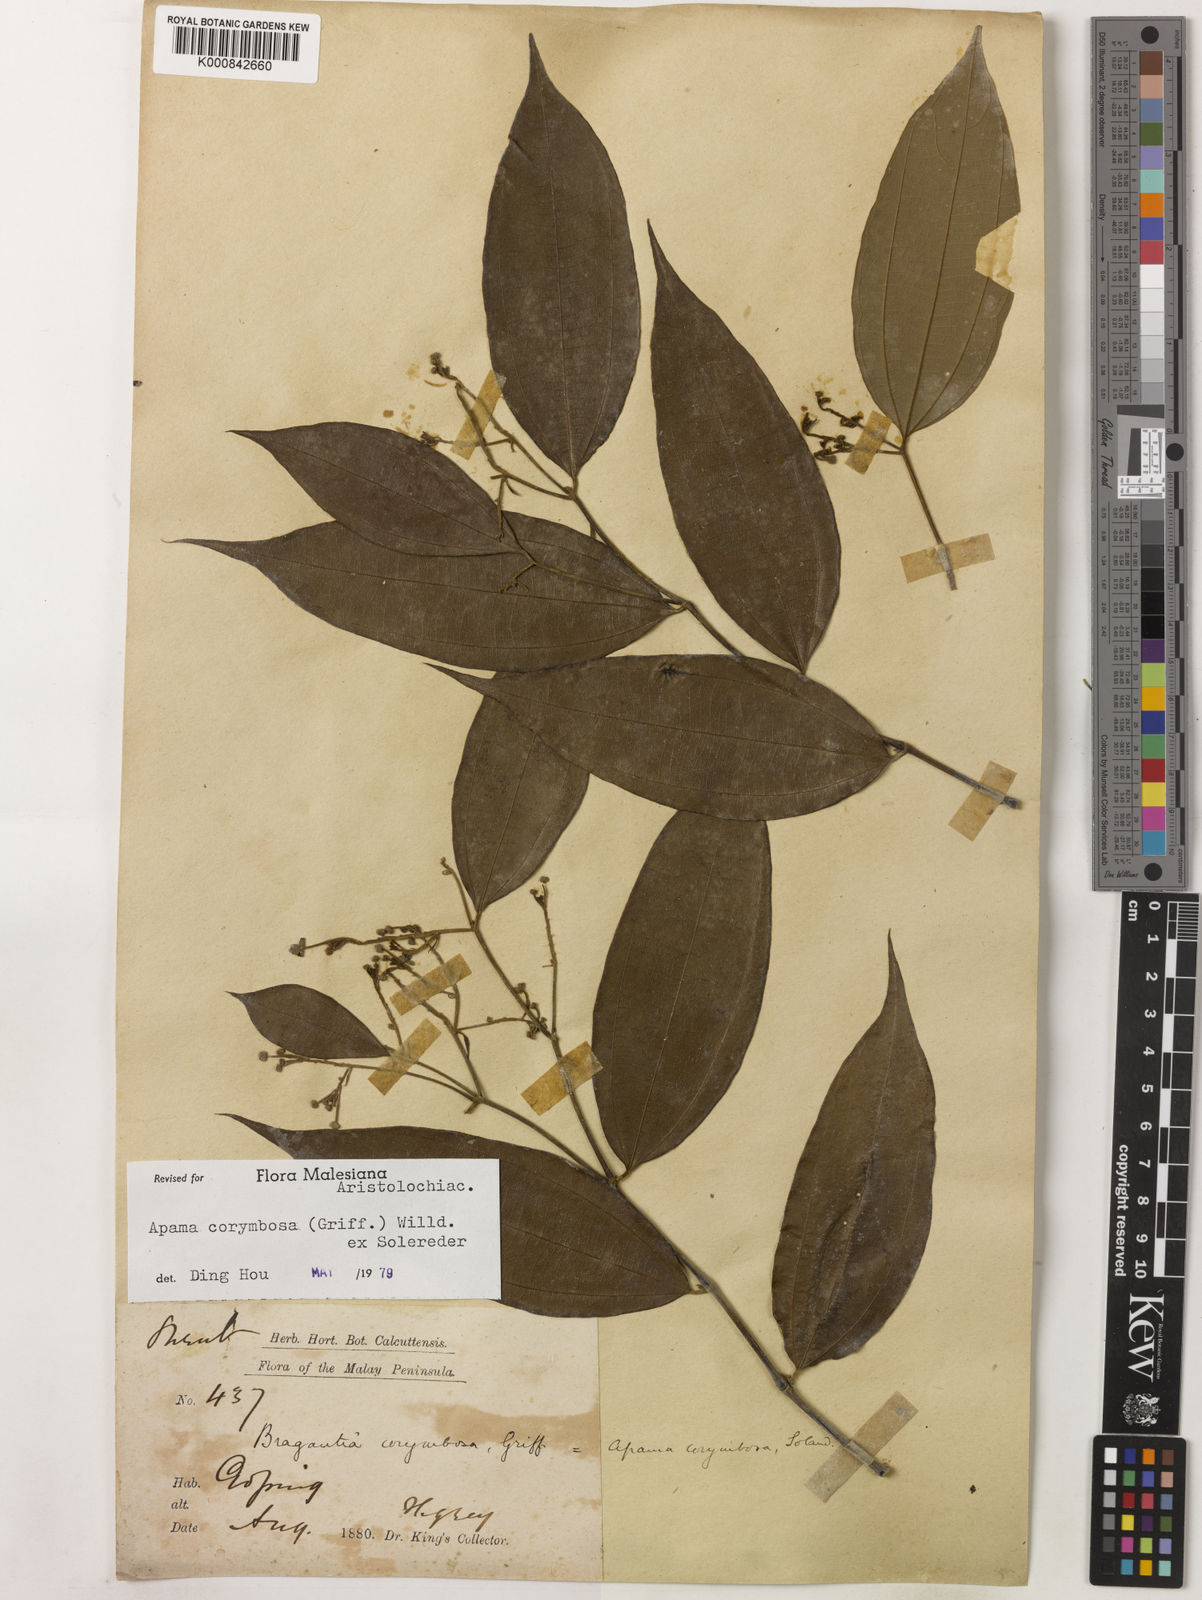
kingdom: Plantae
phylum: Tracheophyta
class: Magnoliopsida
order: Piperales
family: Aristolochiaceae
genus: Thottea
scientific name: Thottea piperiformis
